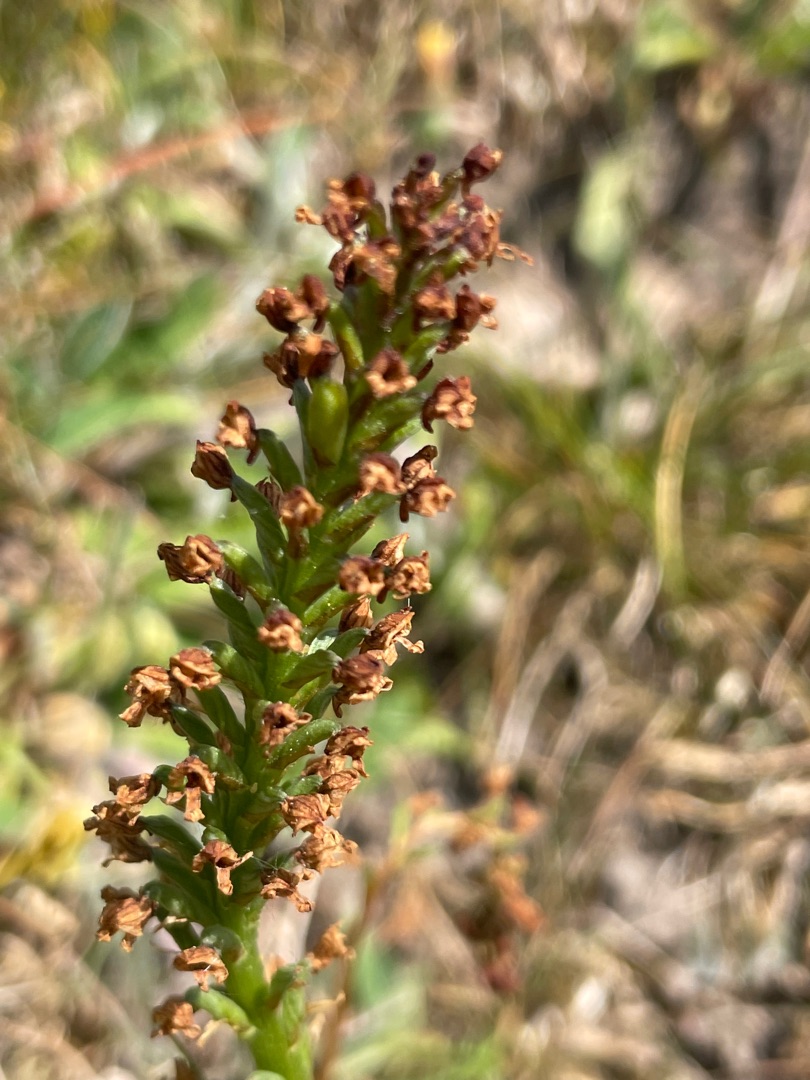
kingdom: Plantae
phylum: Tracheophyta
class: Liliopsida
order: Asparagales
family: Orchidaceae
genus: Neotinea
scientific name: Neotinea ustulata
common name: Bakkegøgeurt
